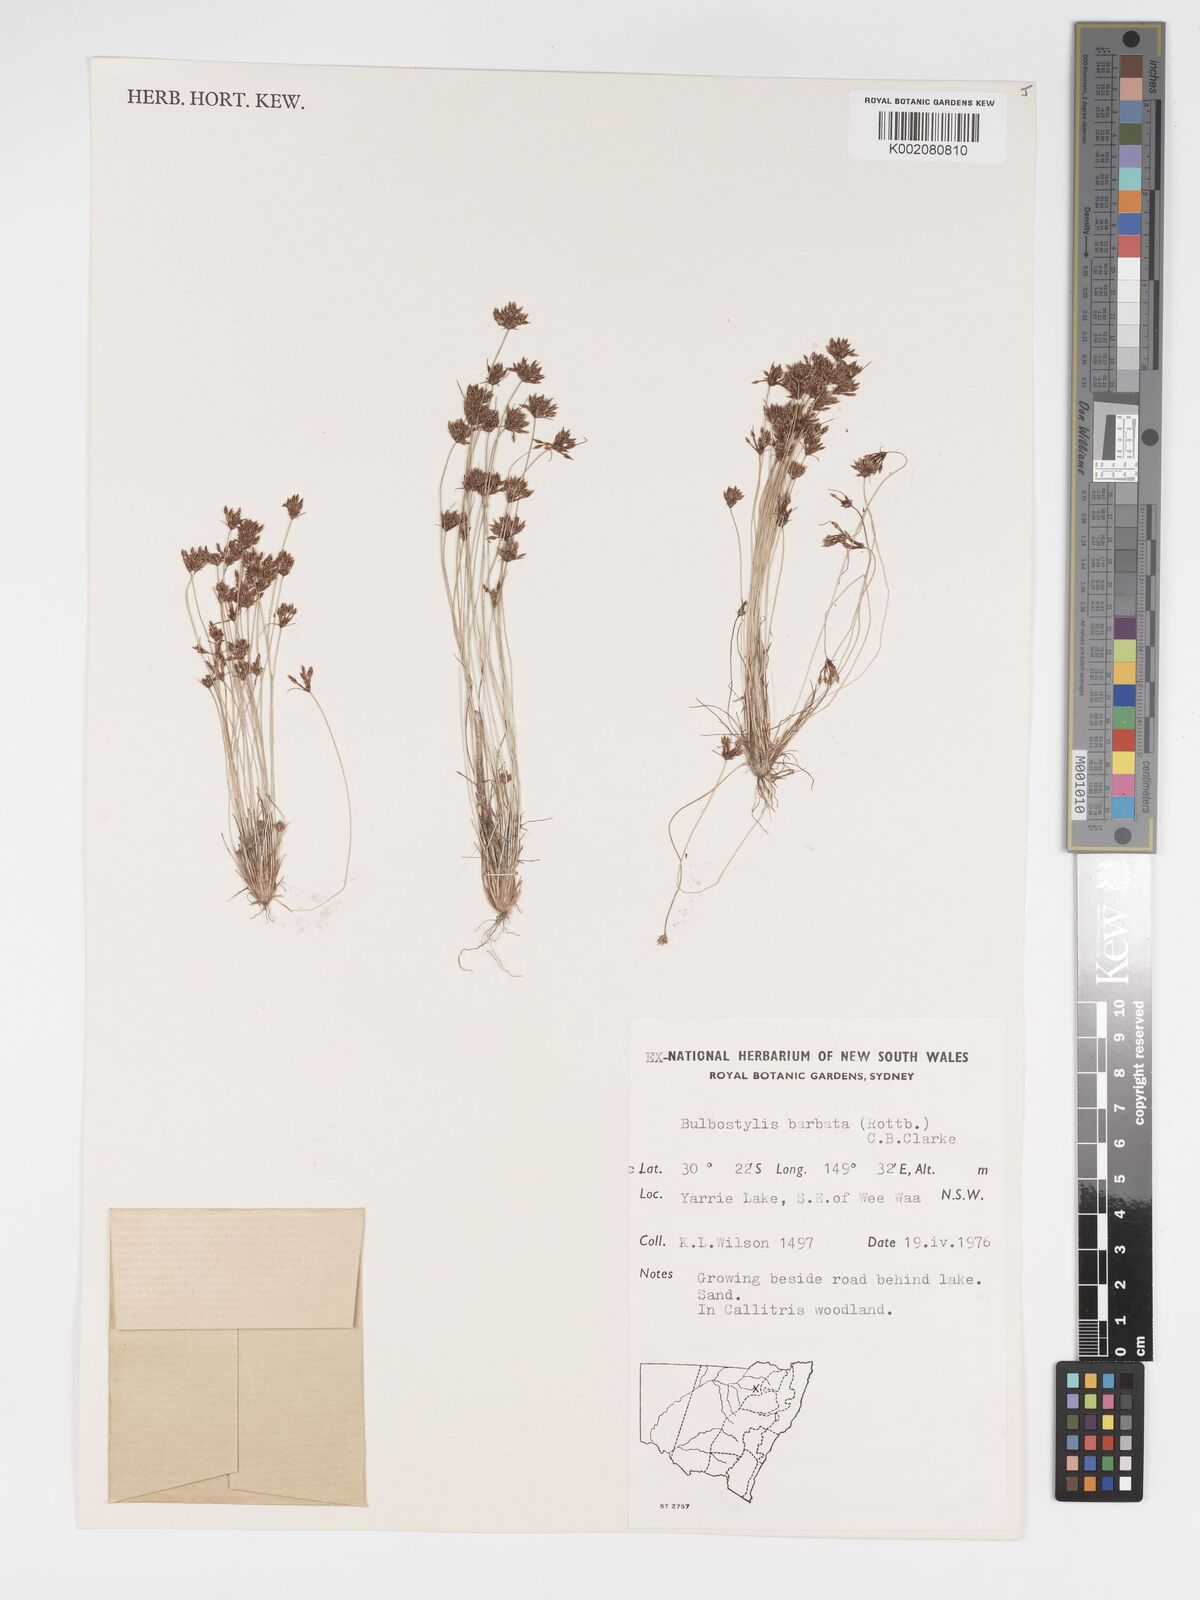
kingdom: Plantae
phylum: Tracheophyta
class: Liliopsida
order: Poales
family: Cyperaceae
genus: Bulbostylis
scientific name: Bulbostylis barbata
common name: Watergrass
